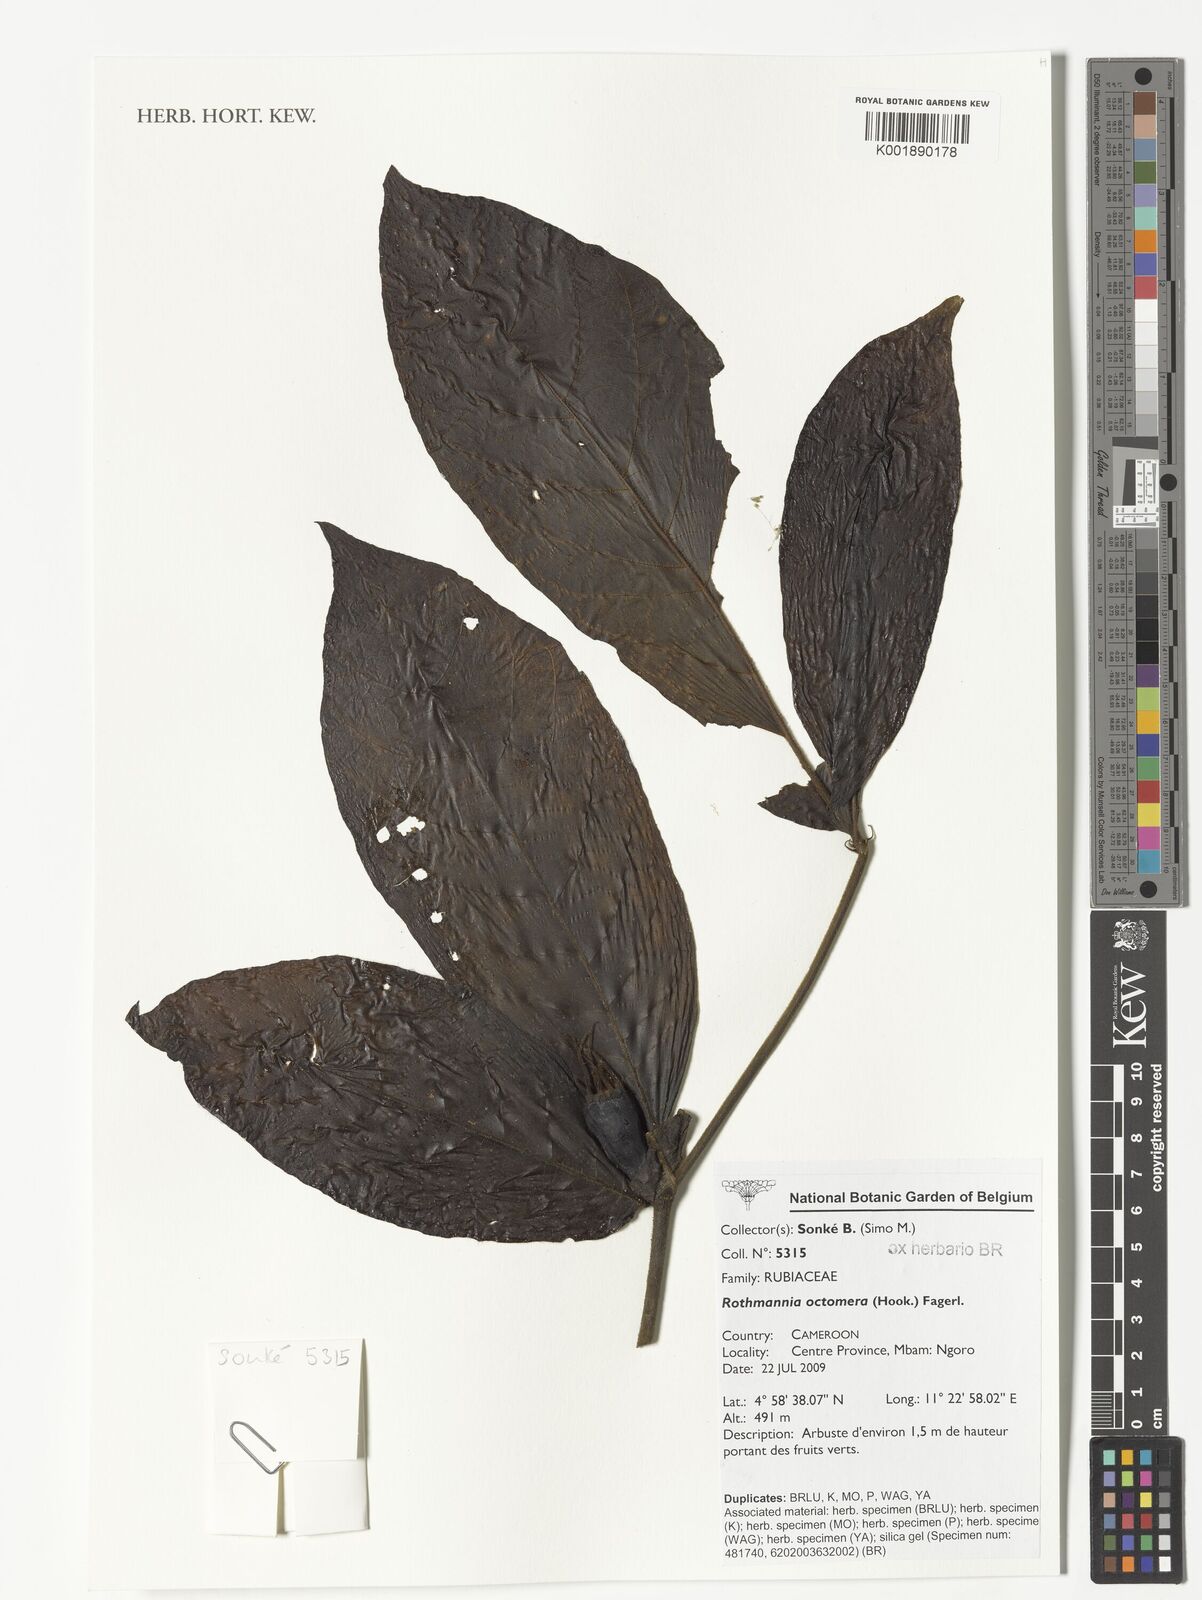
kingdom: Plantae
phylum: Tracheophyta
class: Magnoliopsida
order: Gentianales
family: Rubiaceae
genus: Rothmannia
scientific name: Rothmannia octomera
